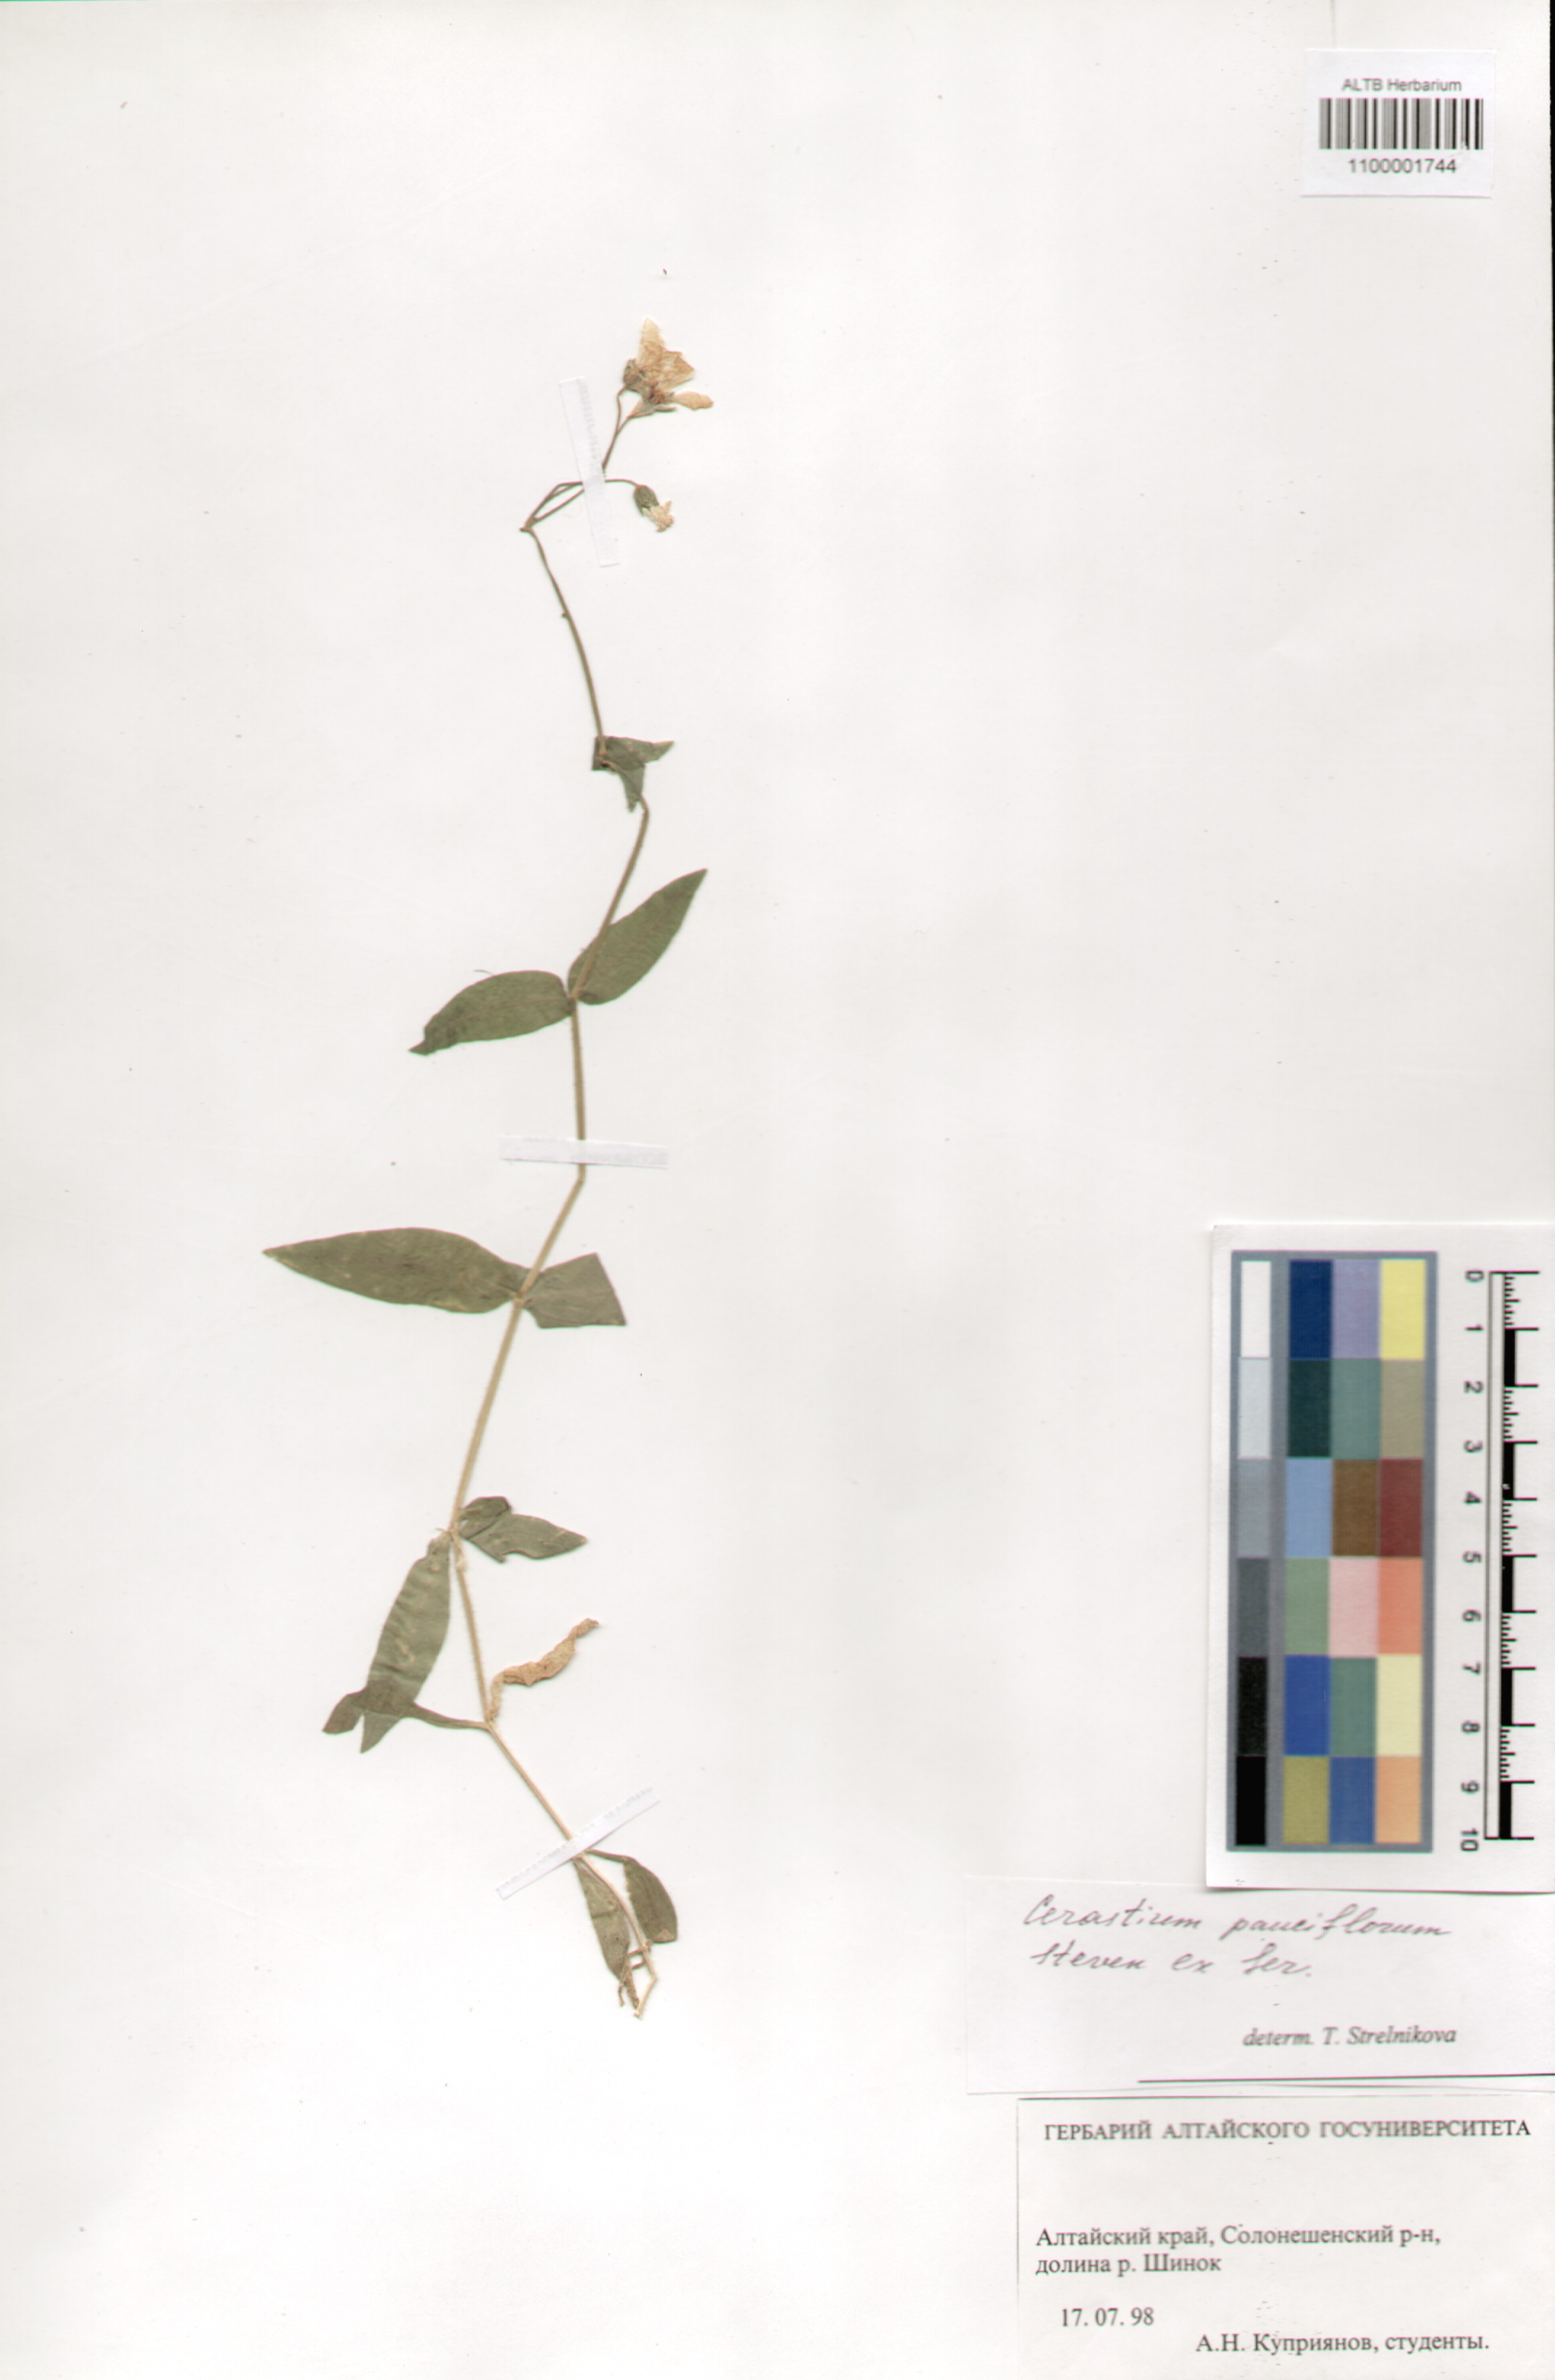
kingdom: Plantae
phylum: Tracheophyta
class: Magnoliopsida
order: Caryophyllales
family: Caryophyllaceae
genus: Cerastium
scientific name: Cerastium pauciflorum
